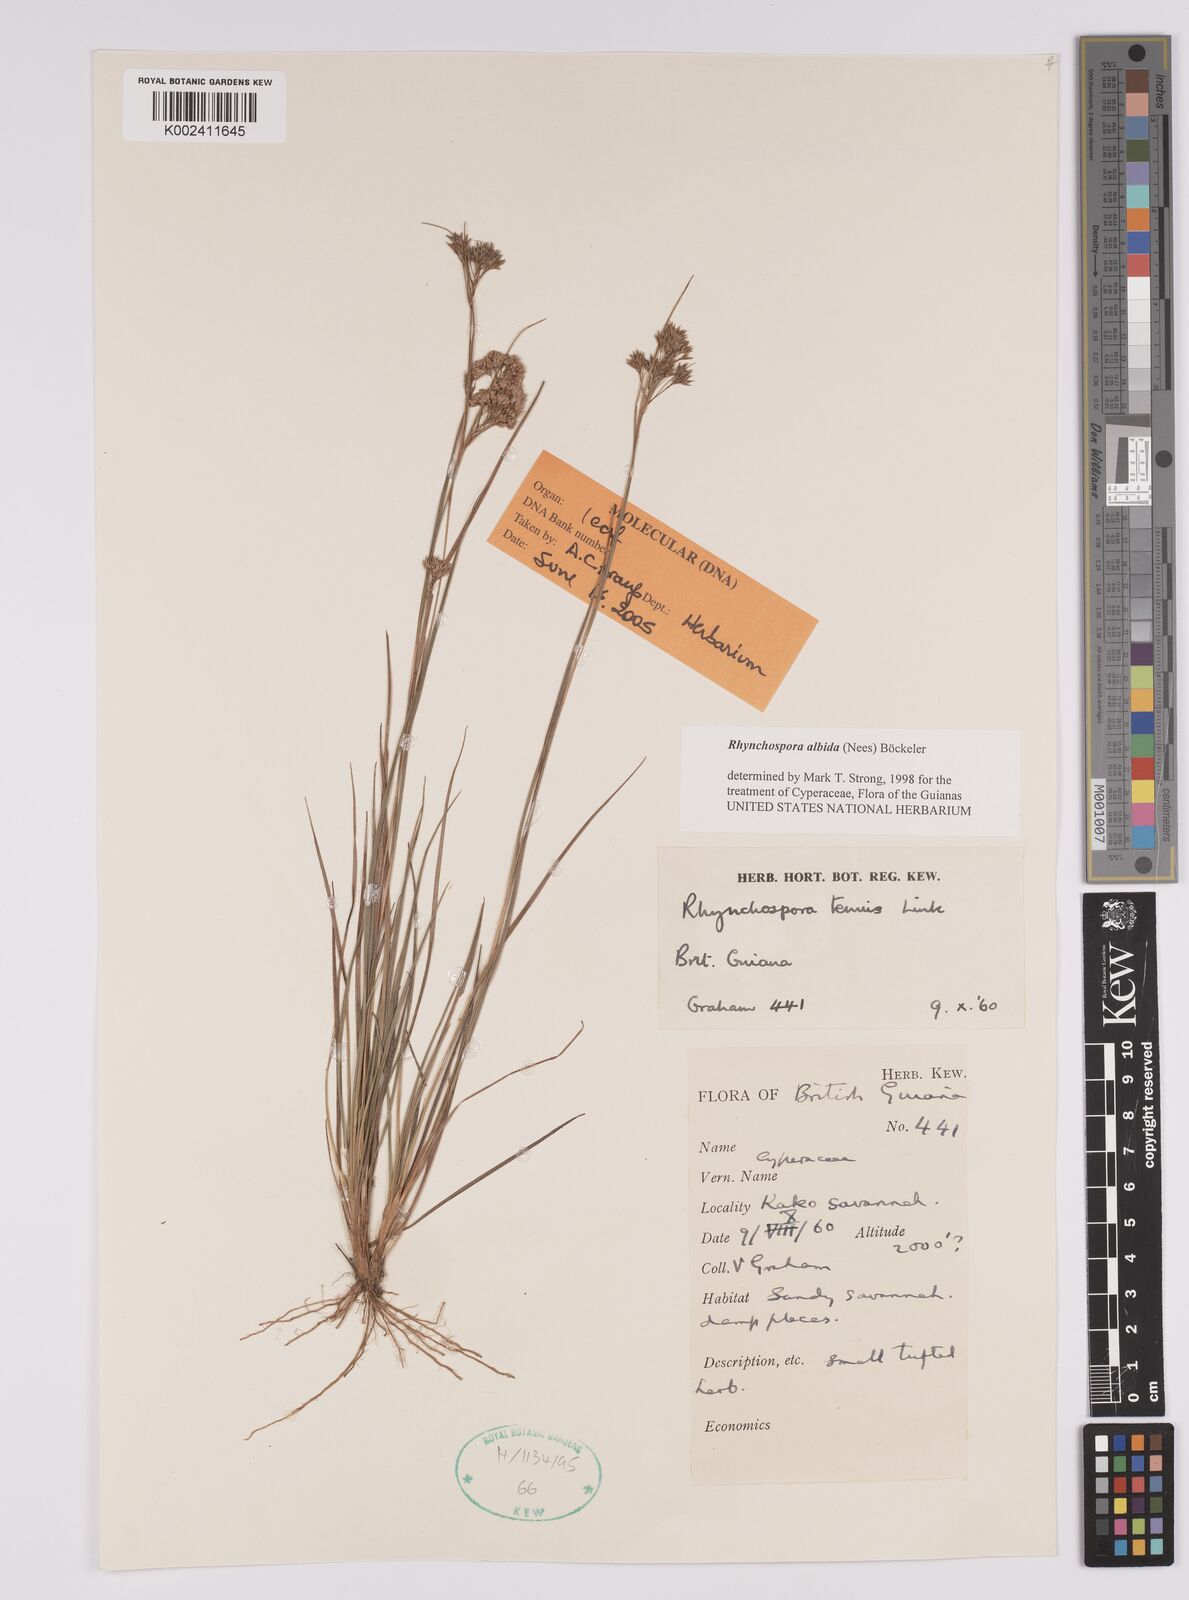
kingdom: Plantae
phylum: Tracheophyta
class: Liliopsida
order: Poales
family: Cyperaceae
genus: Rhynchospora
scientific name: Rhynchospora albida
